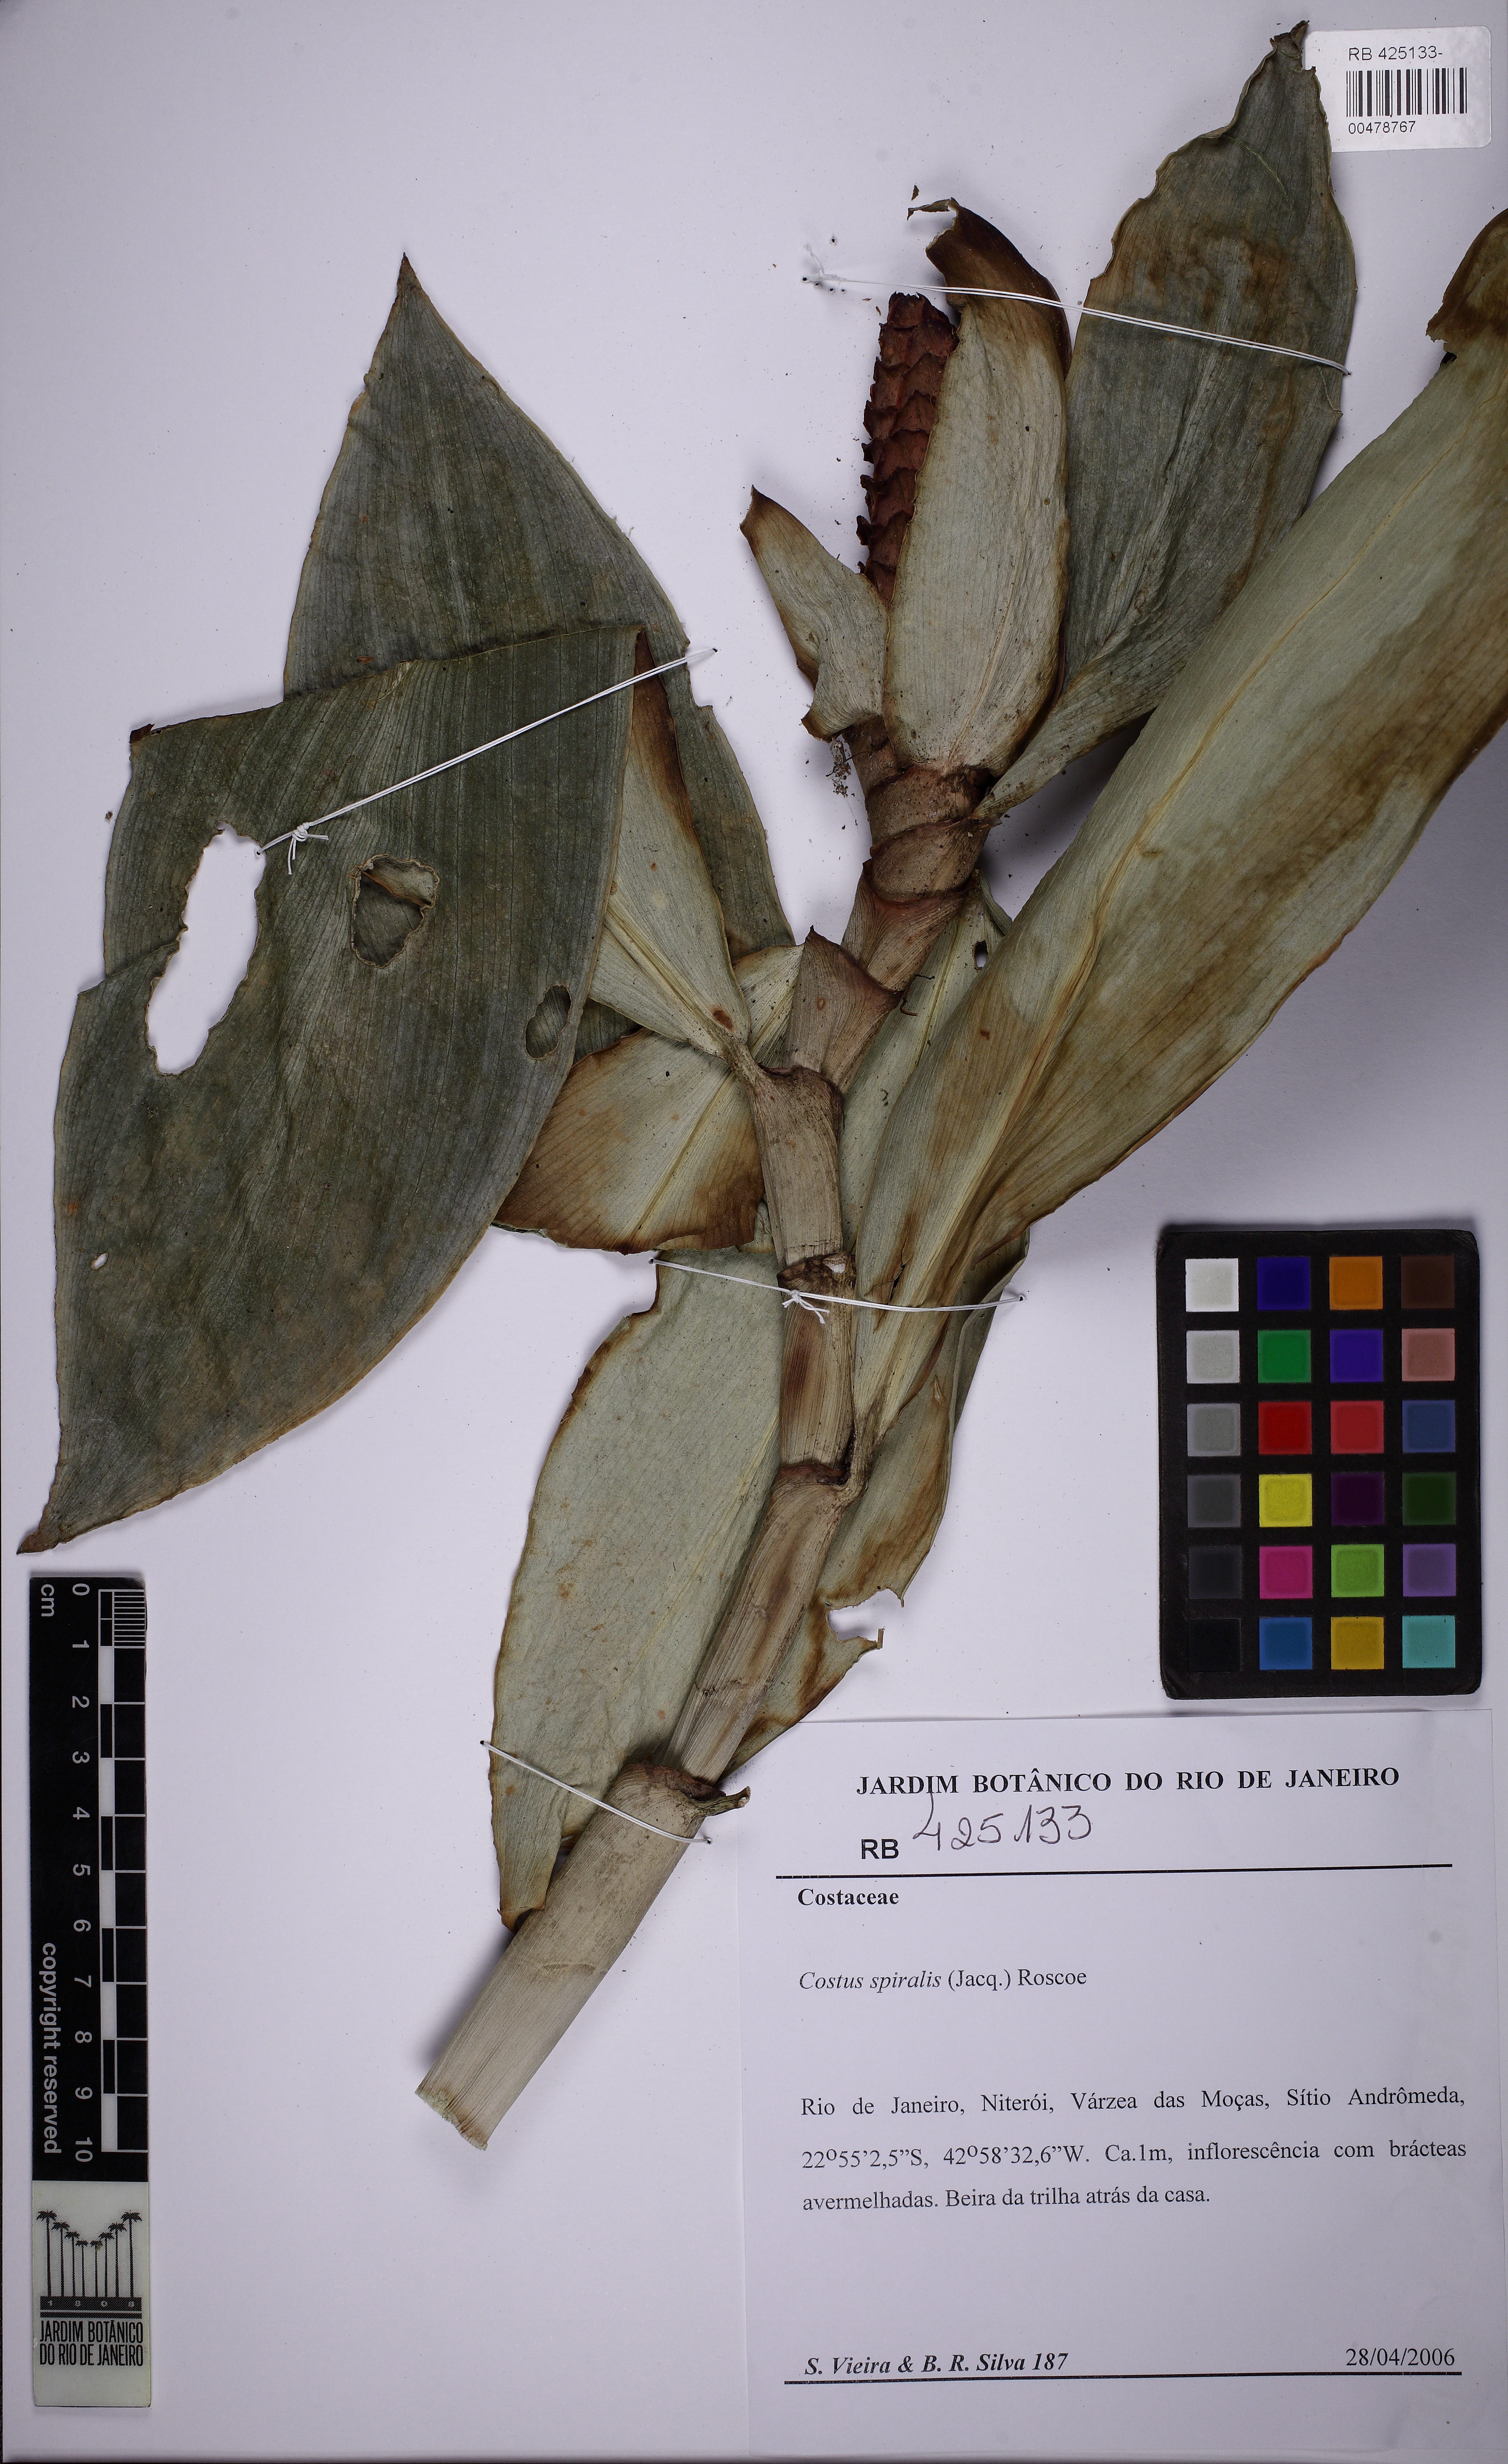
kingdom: Plantae
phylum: Tracheophyta
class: Liliopsida
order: Zingiberales
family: Costaceae
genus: Costus
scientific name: Costus spiralis
